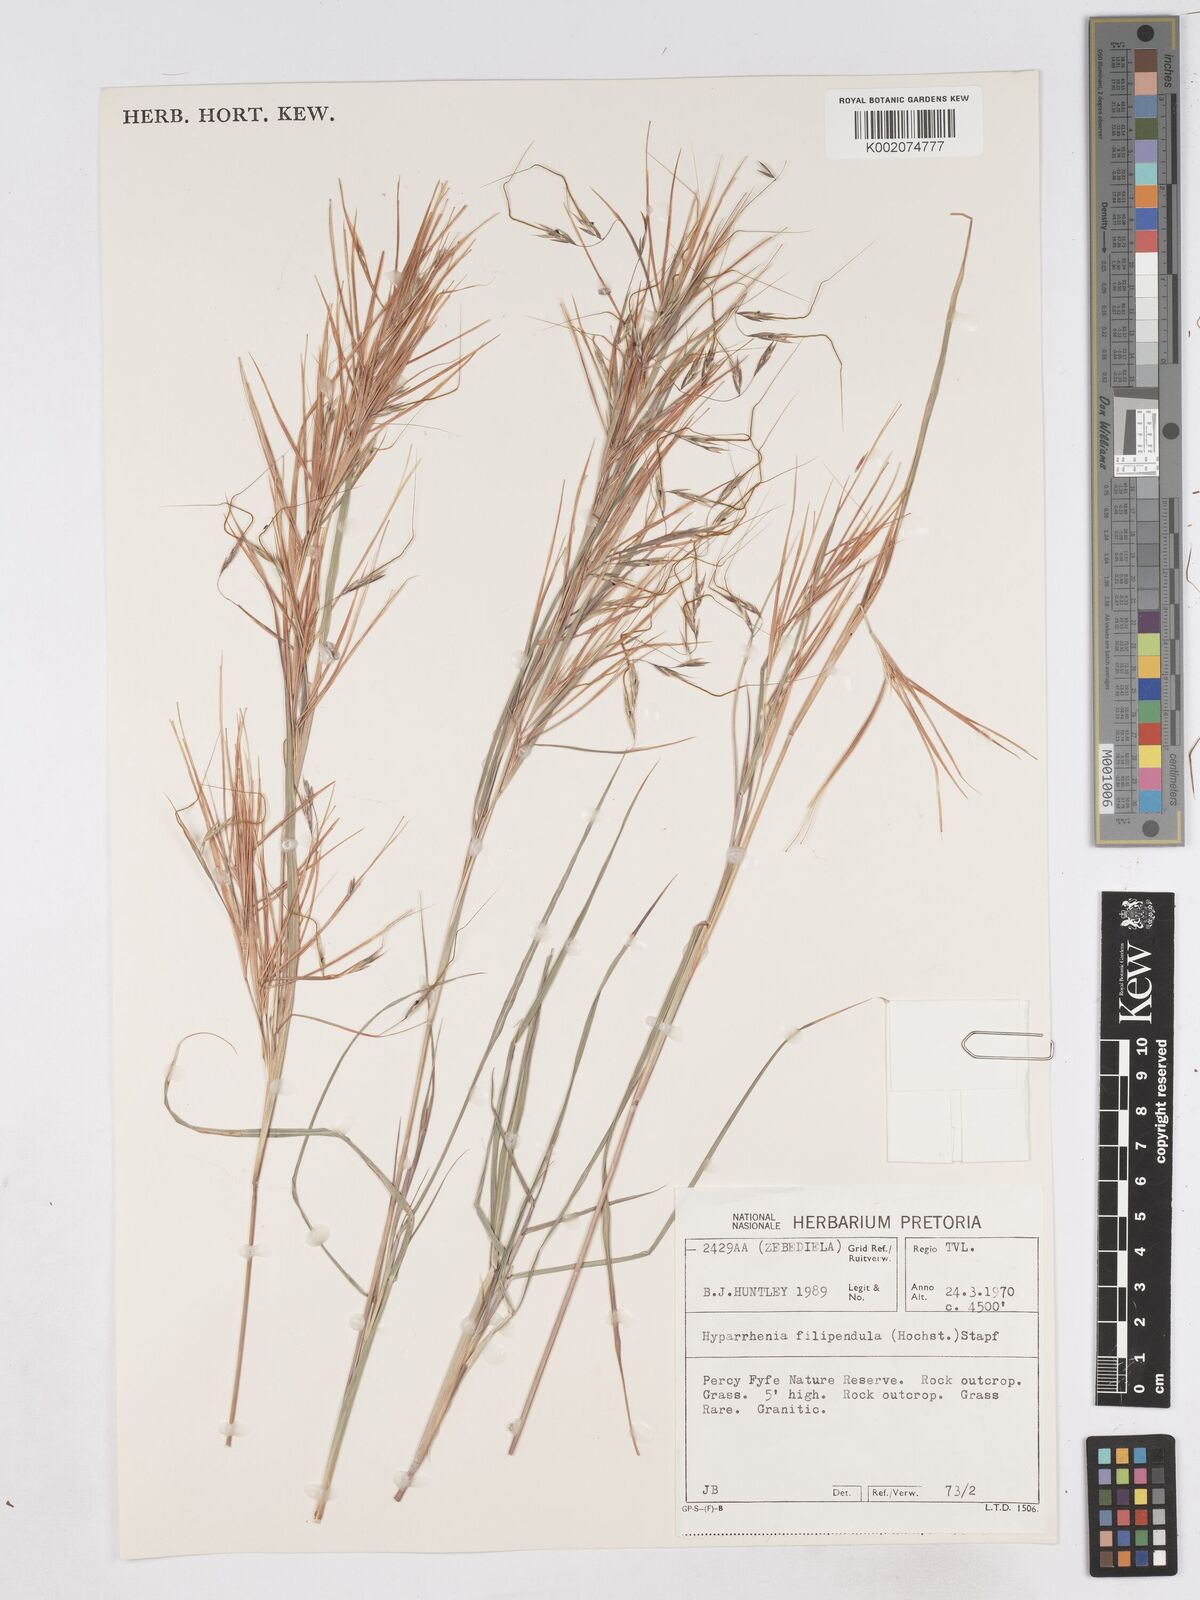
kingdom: Plantae
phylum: Tracheophyta
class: Liliopsida
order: Poales
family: Poaceae
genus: Hyparrhenia
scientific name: Hyparrhenia filipendula
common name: Tambookie grass
